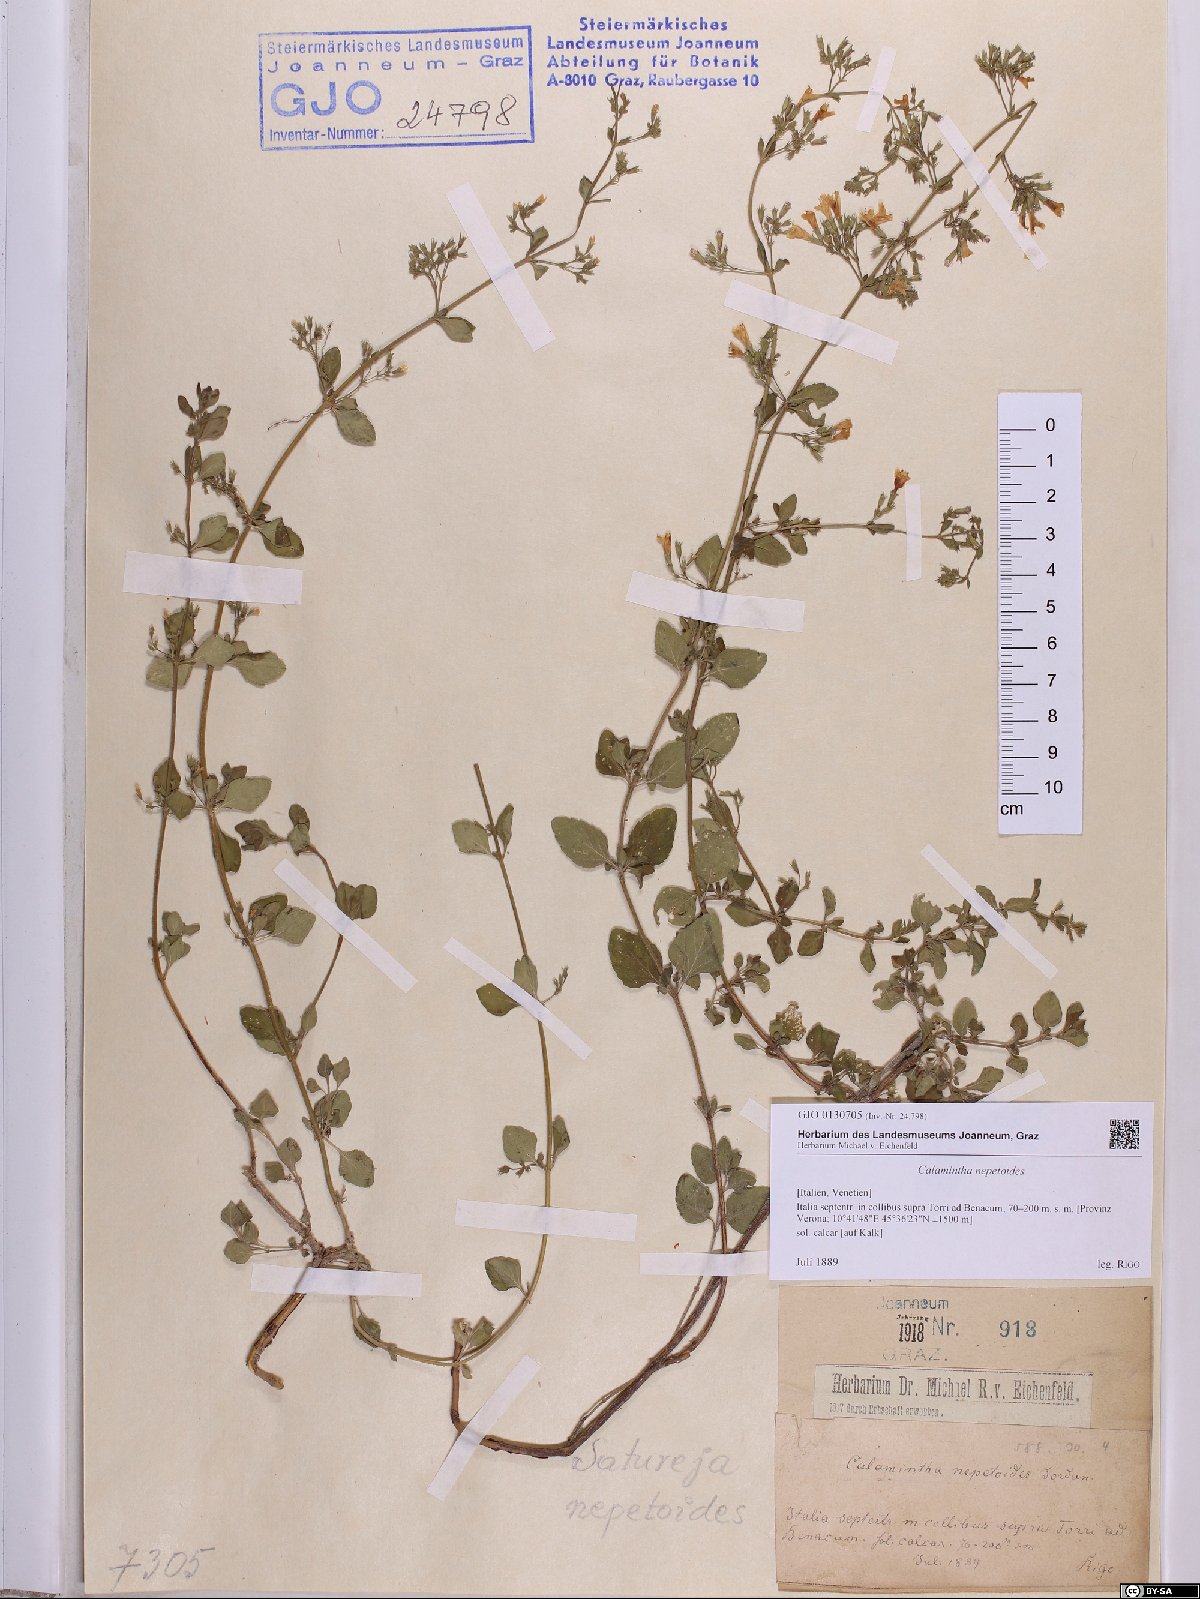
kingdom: Plantae
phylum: Tracheophyta
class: Magnoliopsida
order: Lamiales
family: Lamiaceae
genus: Clinopodium
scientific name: Clinopodium nepeta
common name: Lesser calamint
